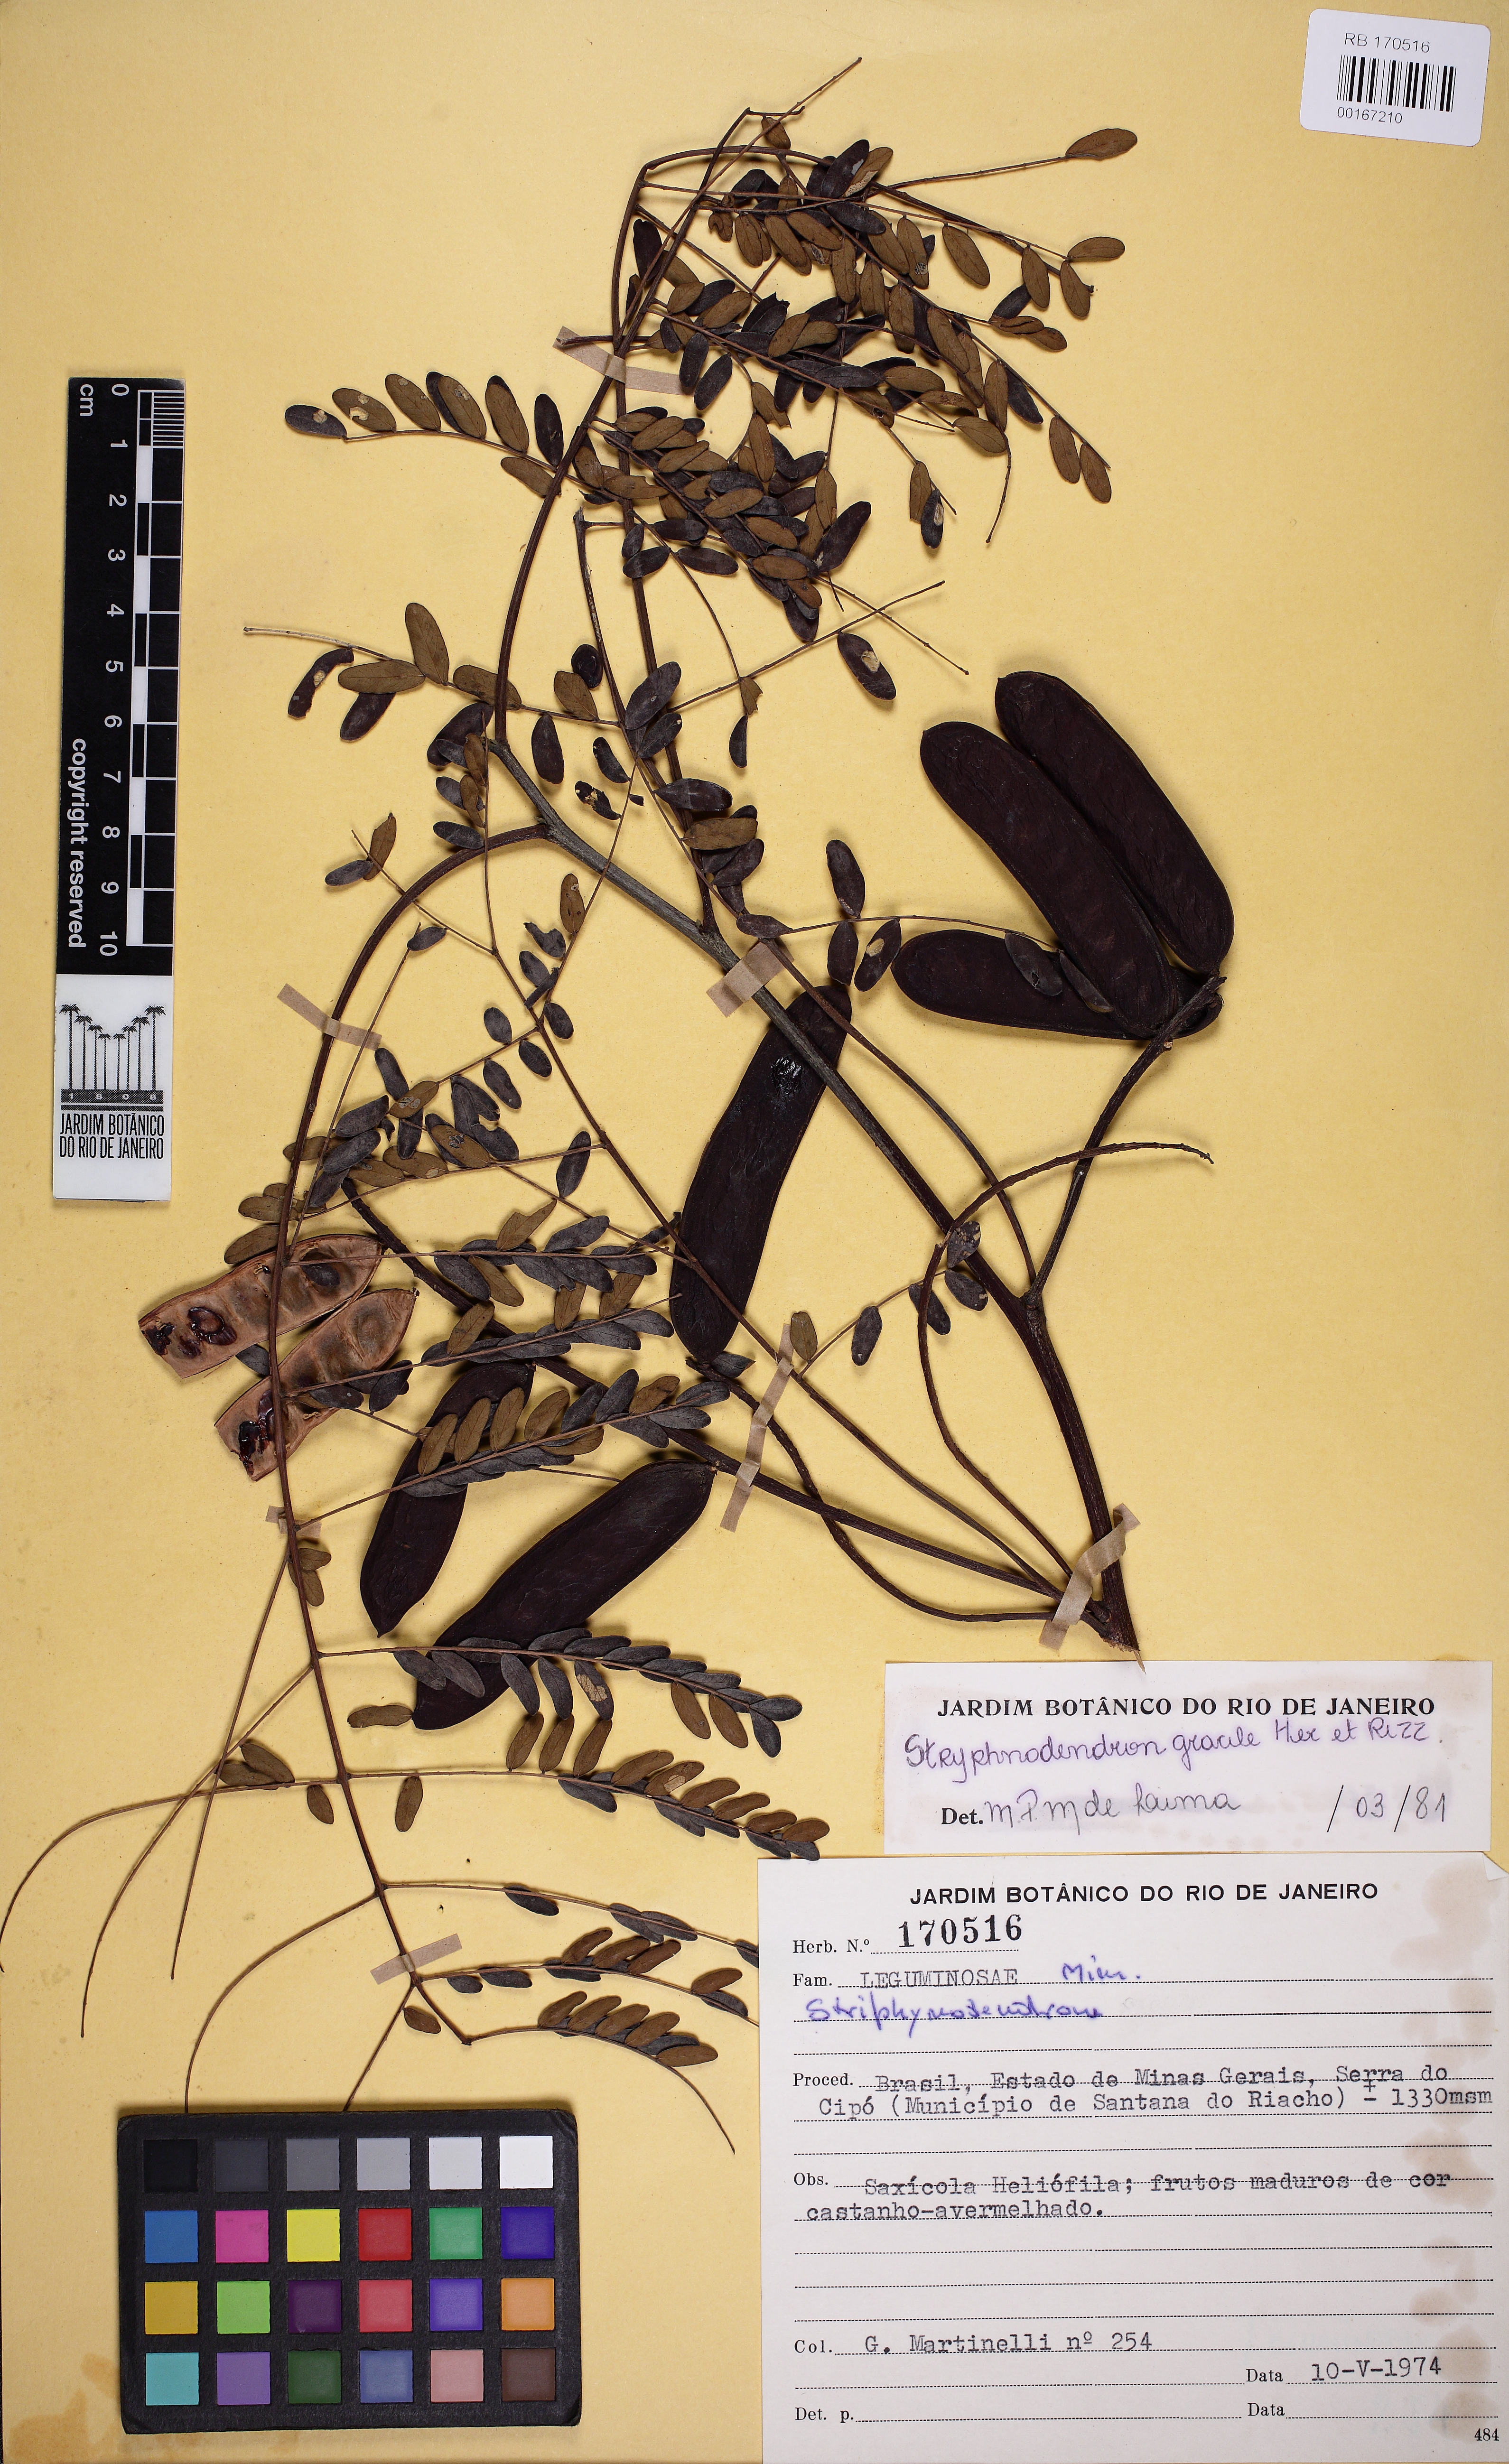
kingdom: Plantae
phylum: Tracheophyta
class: Magnoliopsida
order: Fabales
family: Fabaceae
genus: Stryphnodendron
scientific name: Stryphnodendron gracile
